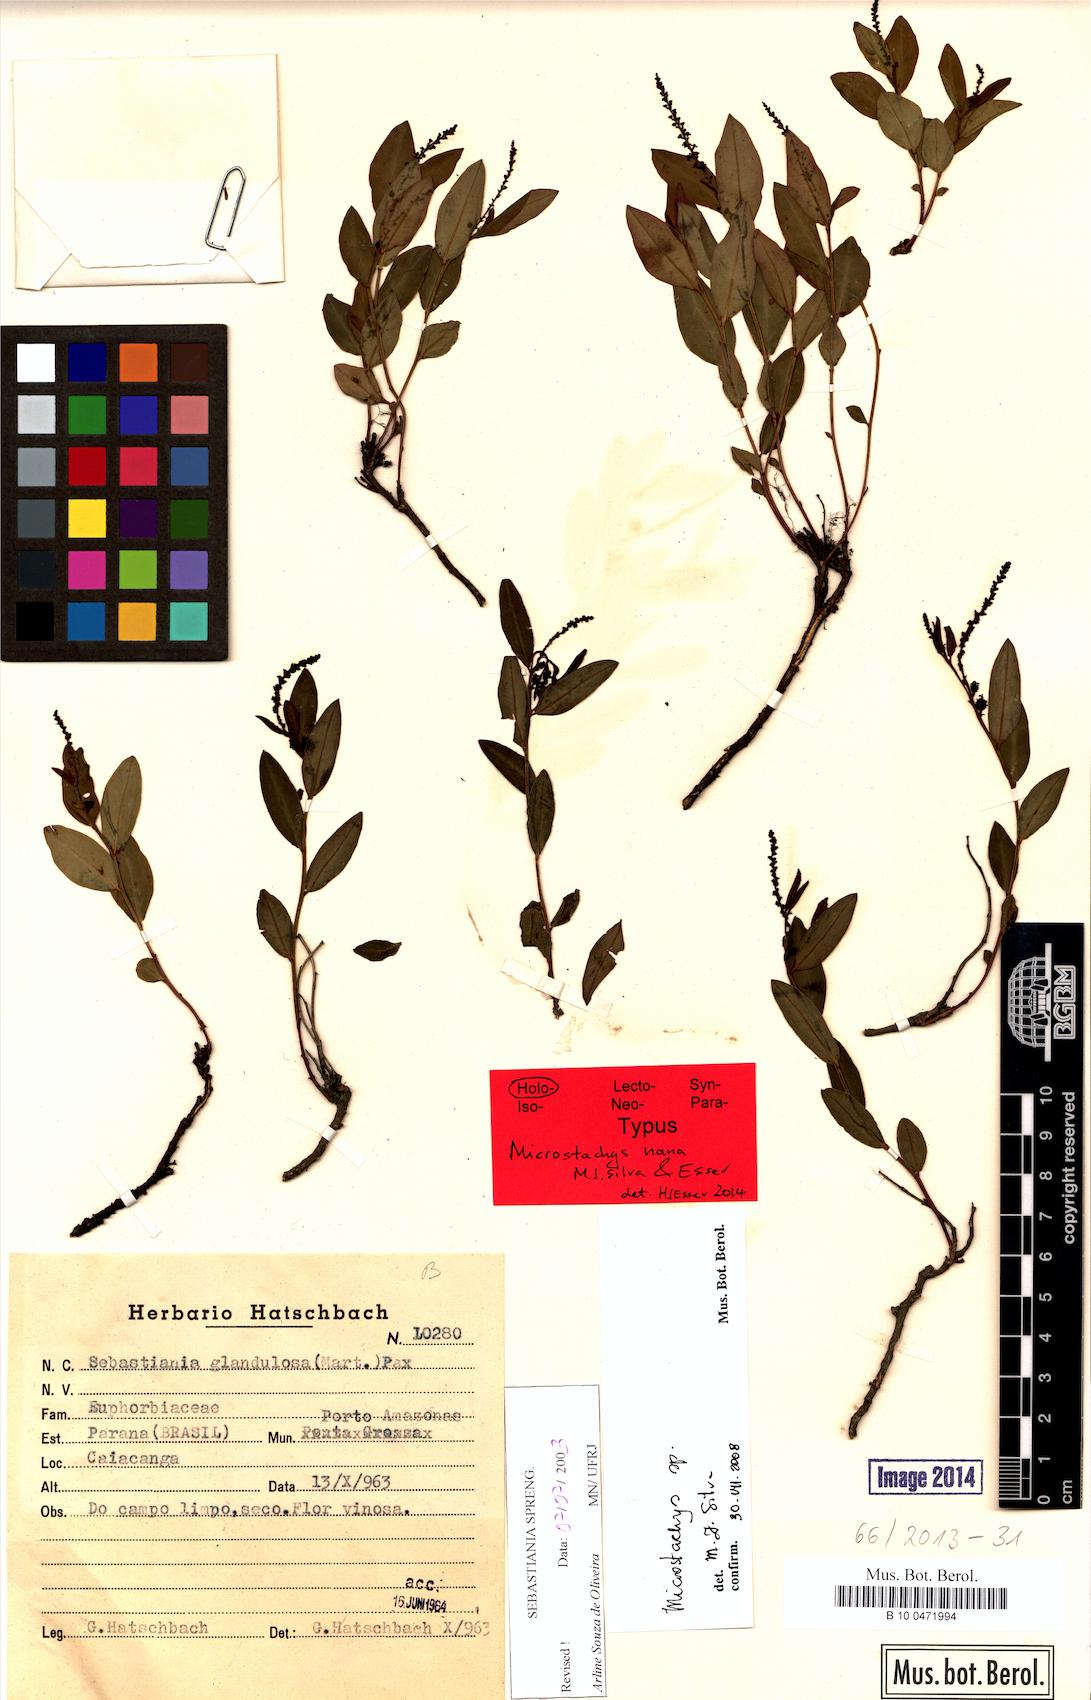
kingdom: Plantae
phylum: Tracheophyta
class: Magnoliopsida
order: Malpighiales
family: Euphorbiaceae
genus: Microstachys
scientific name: Microstachys nana
